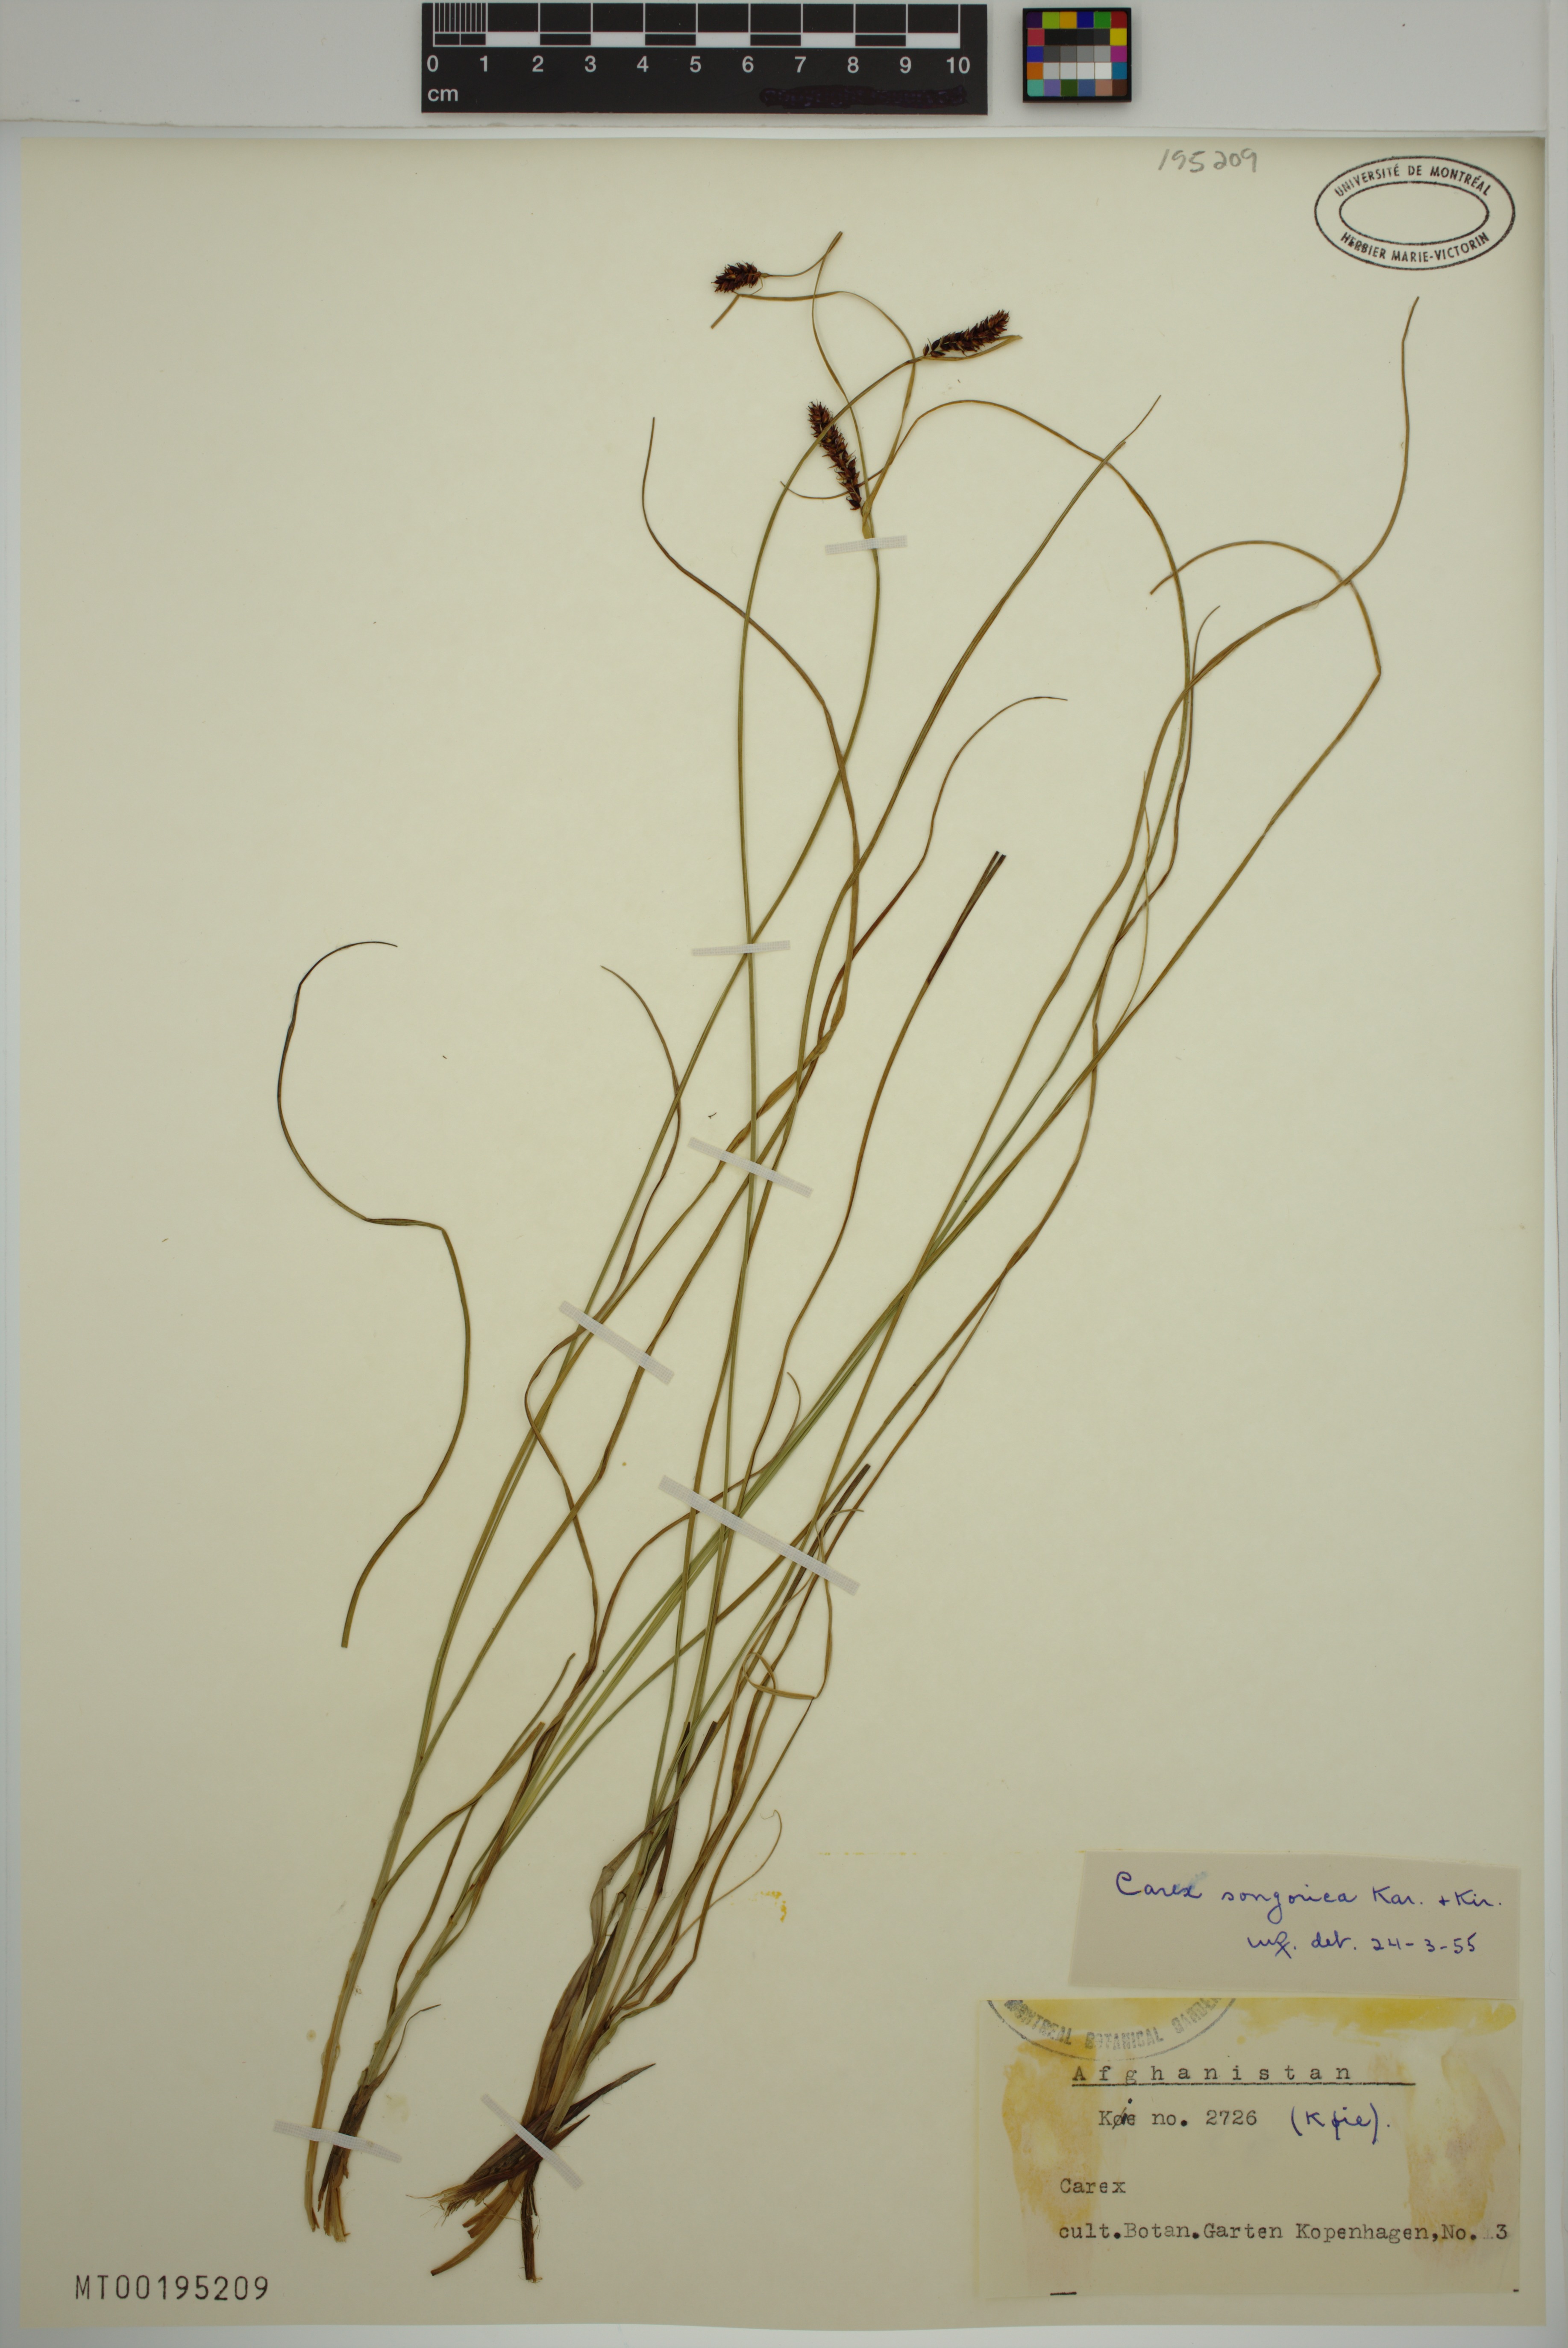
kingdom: Plantae
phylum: Tracheophyta
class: Liliopsida
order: Poales
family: Cyperaceae
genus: Carex
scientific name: Carex songorica
